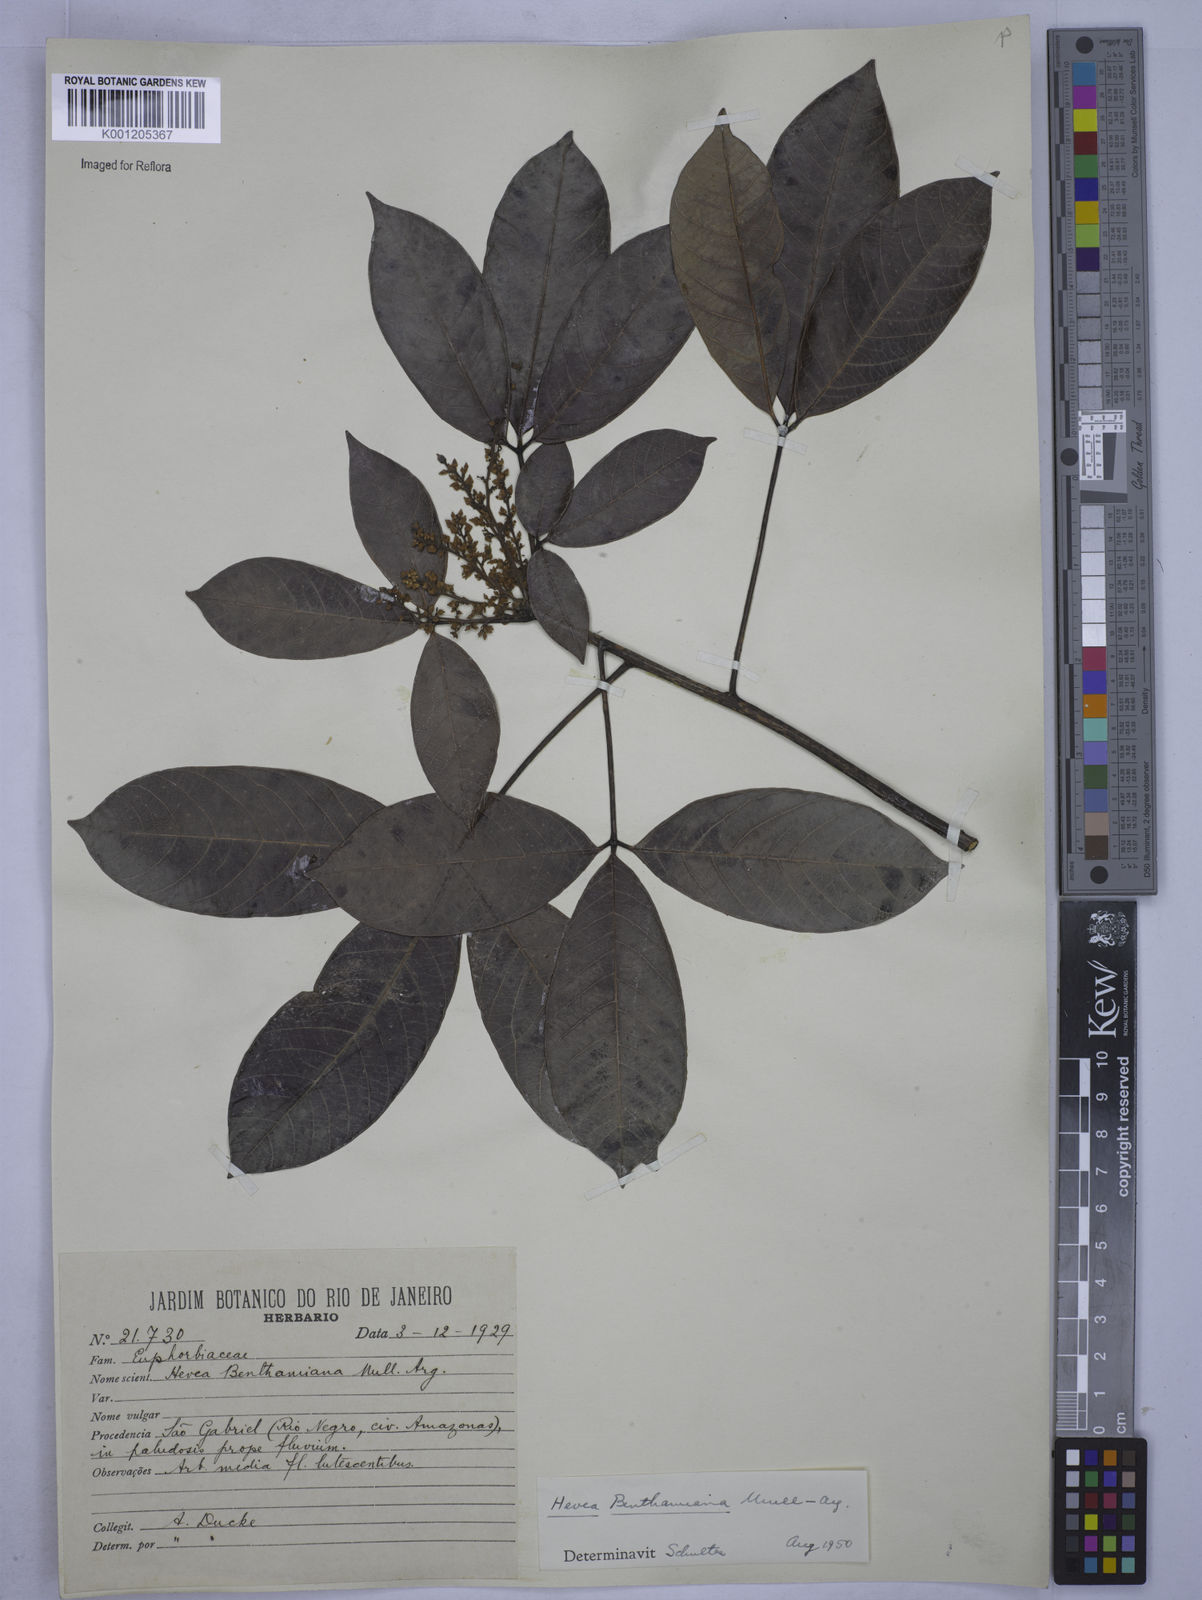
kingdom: Plantae
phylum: Tracheophyta
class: Magnoliopsida
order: Malpighiales
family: Euphorbiaceae
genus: Hevea
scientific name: Hevea
